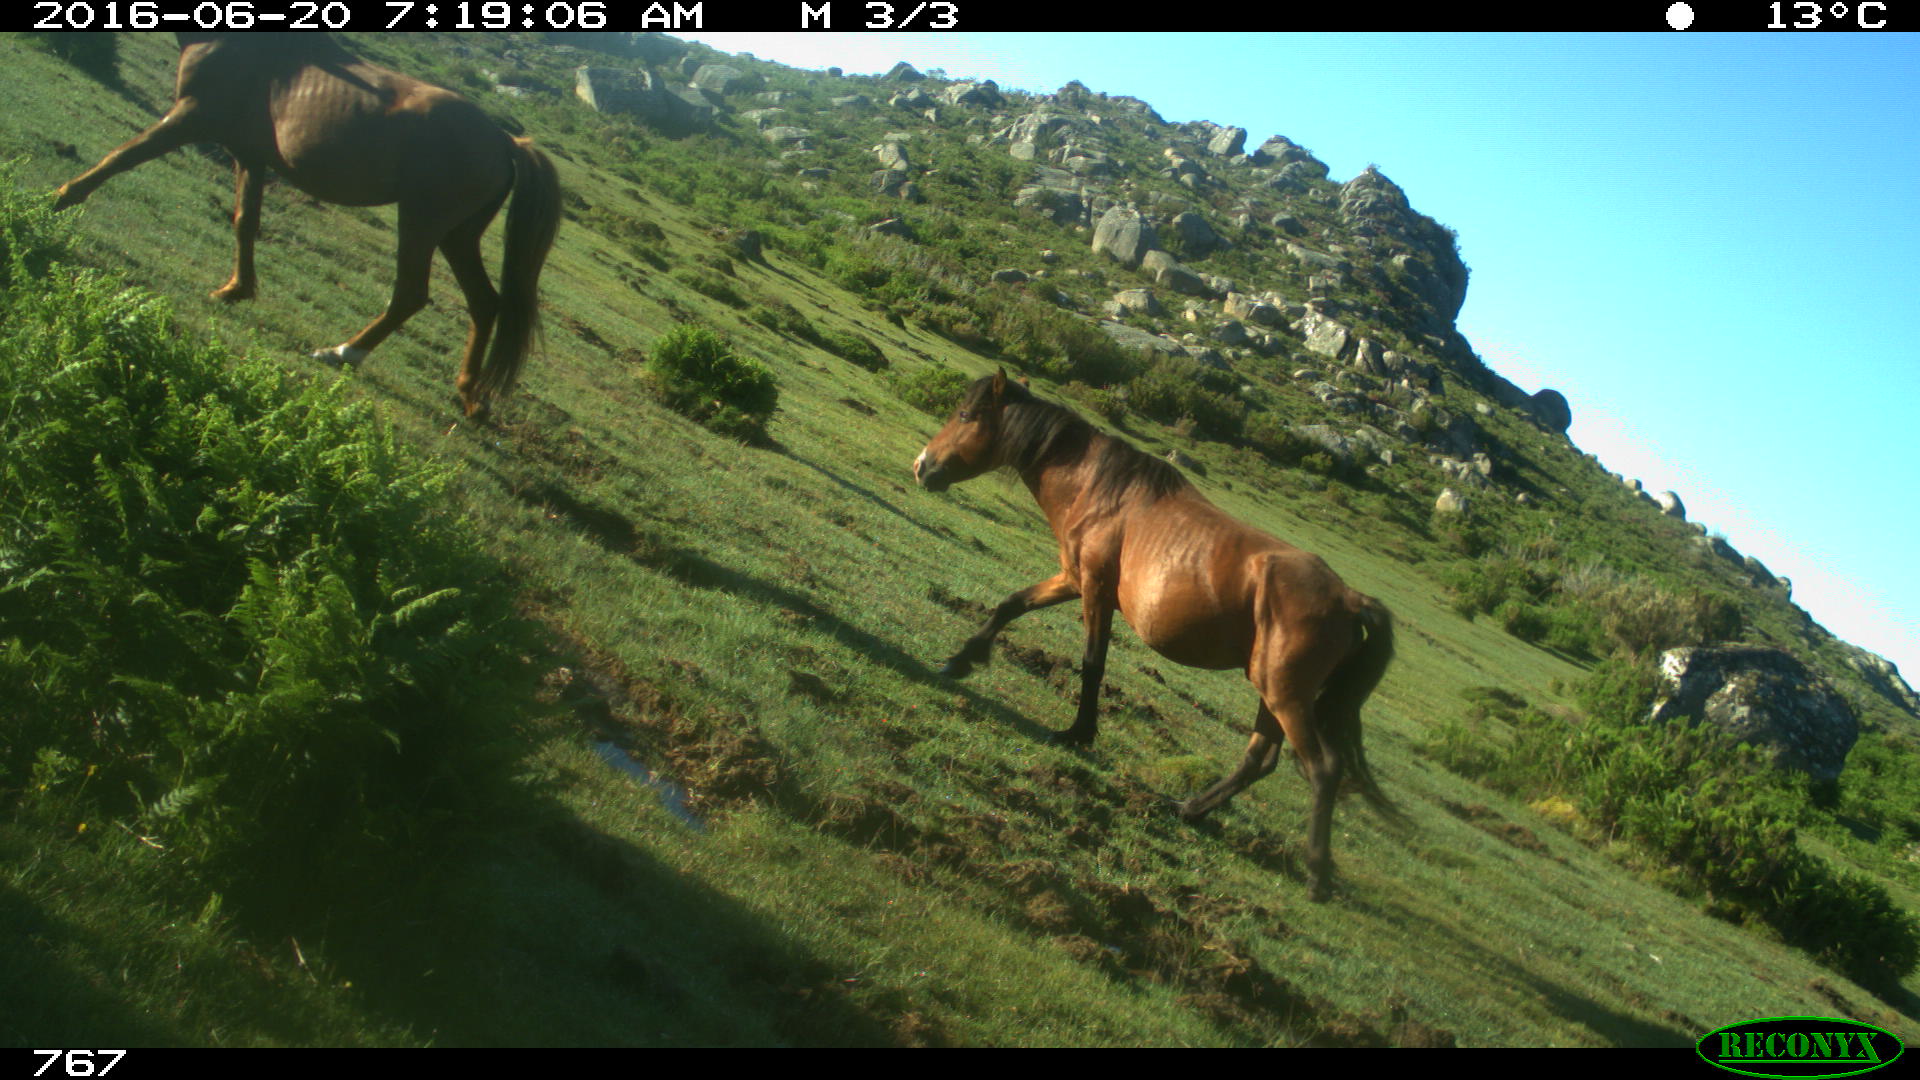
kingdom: Animalia
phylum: Chordata
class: Mammalia
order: Perissodactyla
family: Equidae
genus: Equus
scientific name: Equus caballus
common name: Horse
